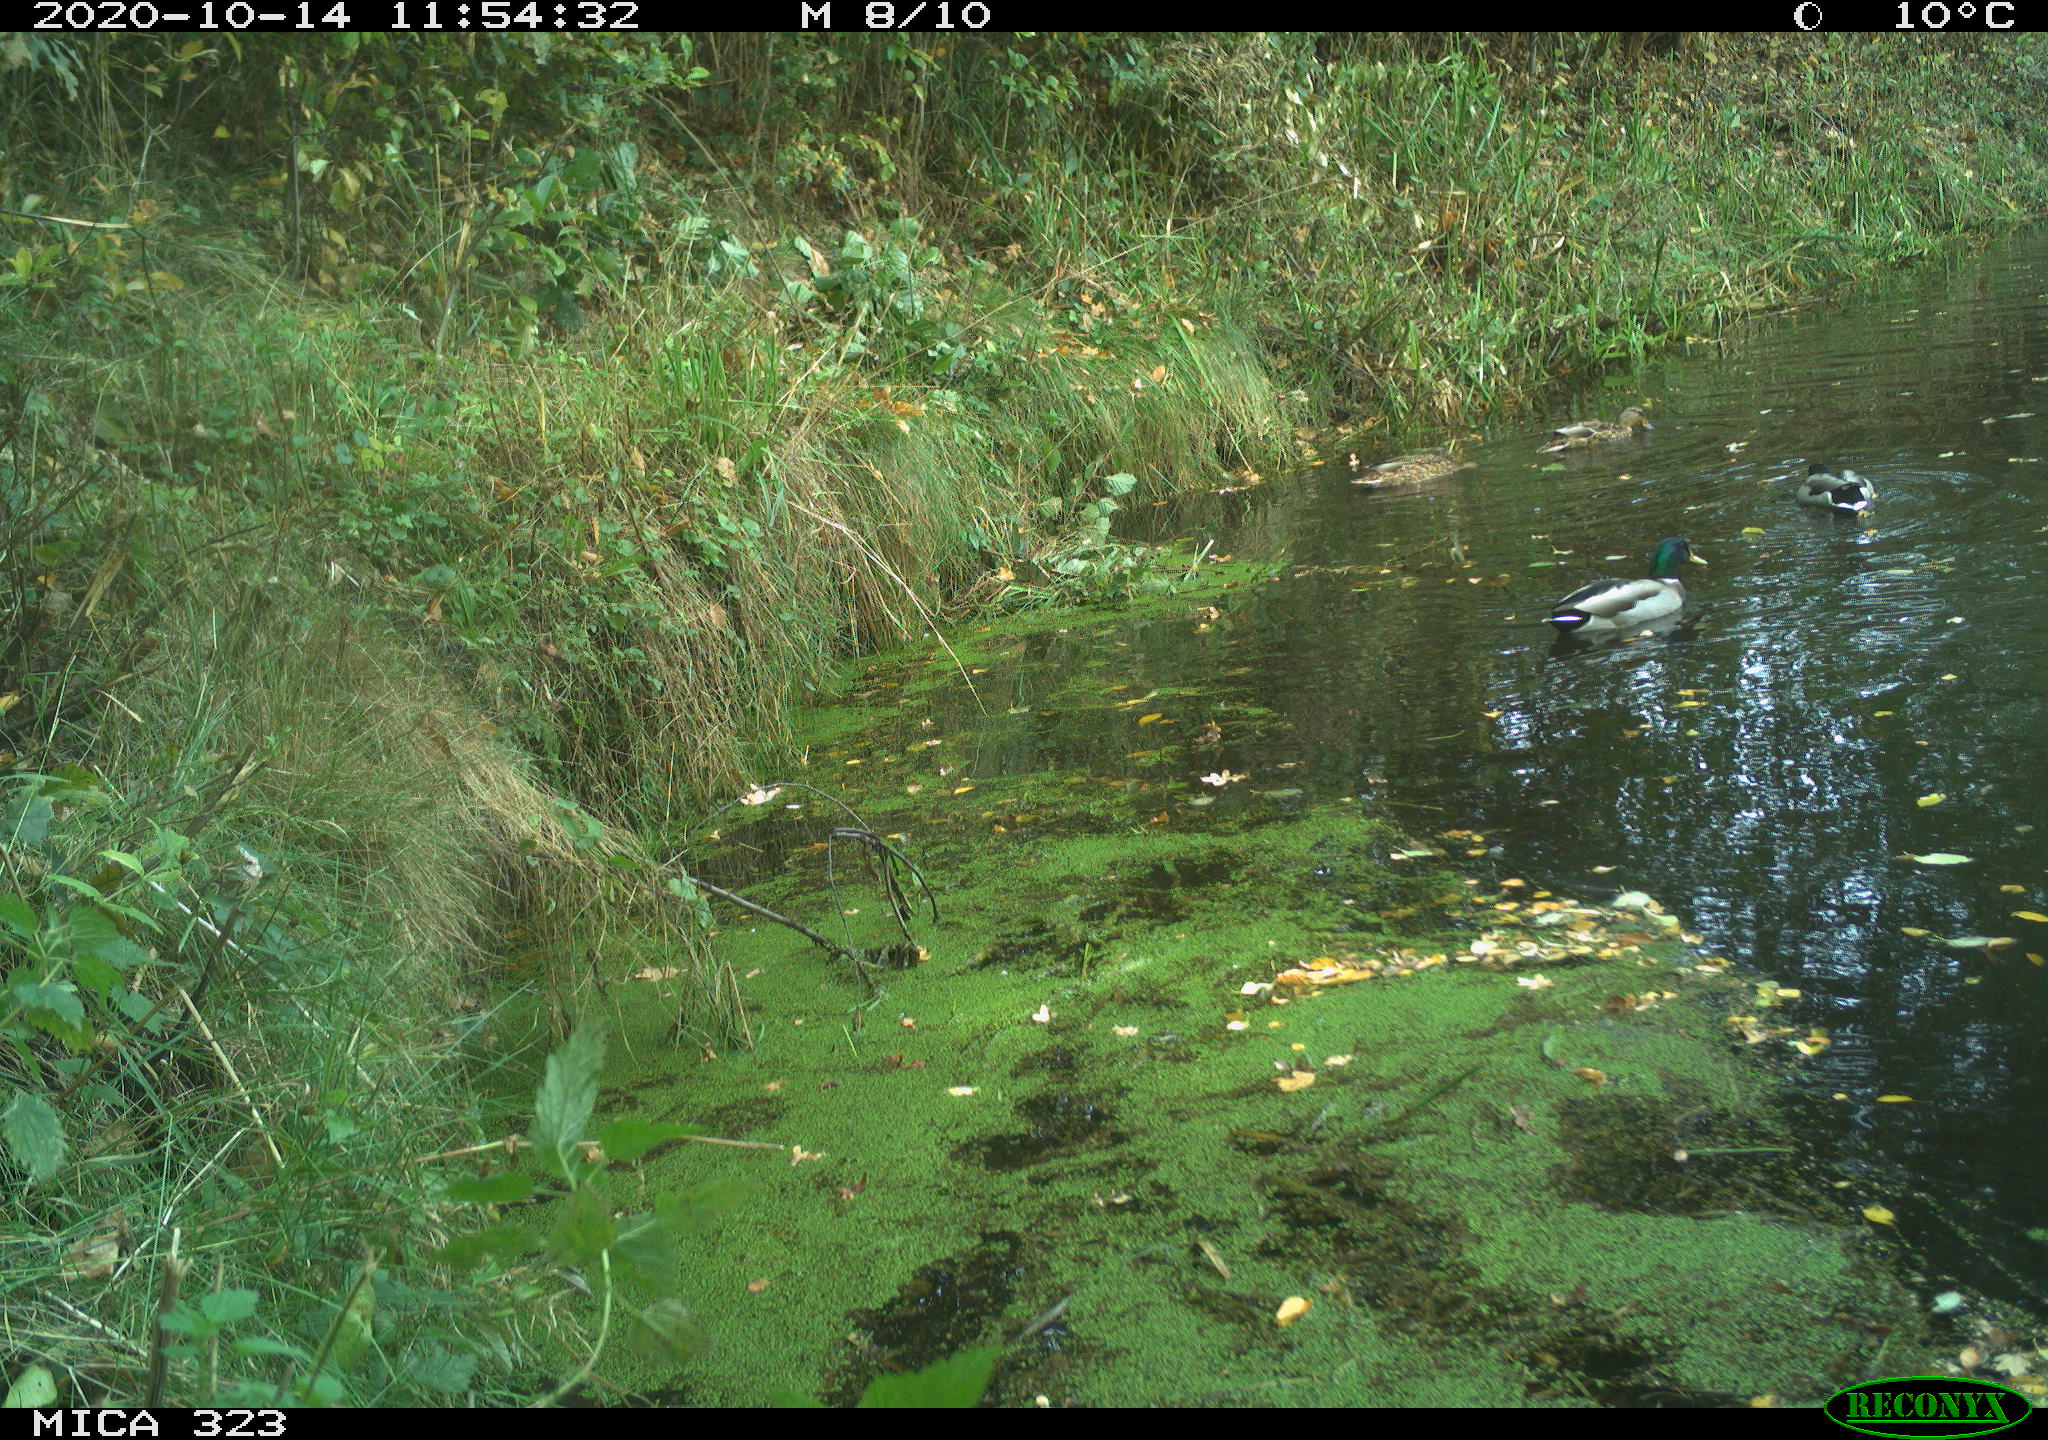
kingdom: Animalia
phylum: Chordata
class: Aves
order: Anseriformes
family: Anatidae
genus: Anas
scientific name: Anas platyrhynchos
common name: Mallard
